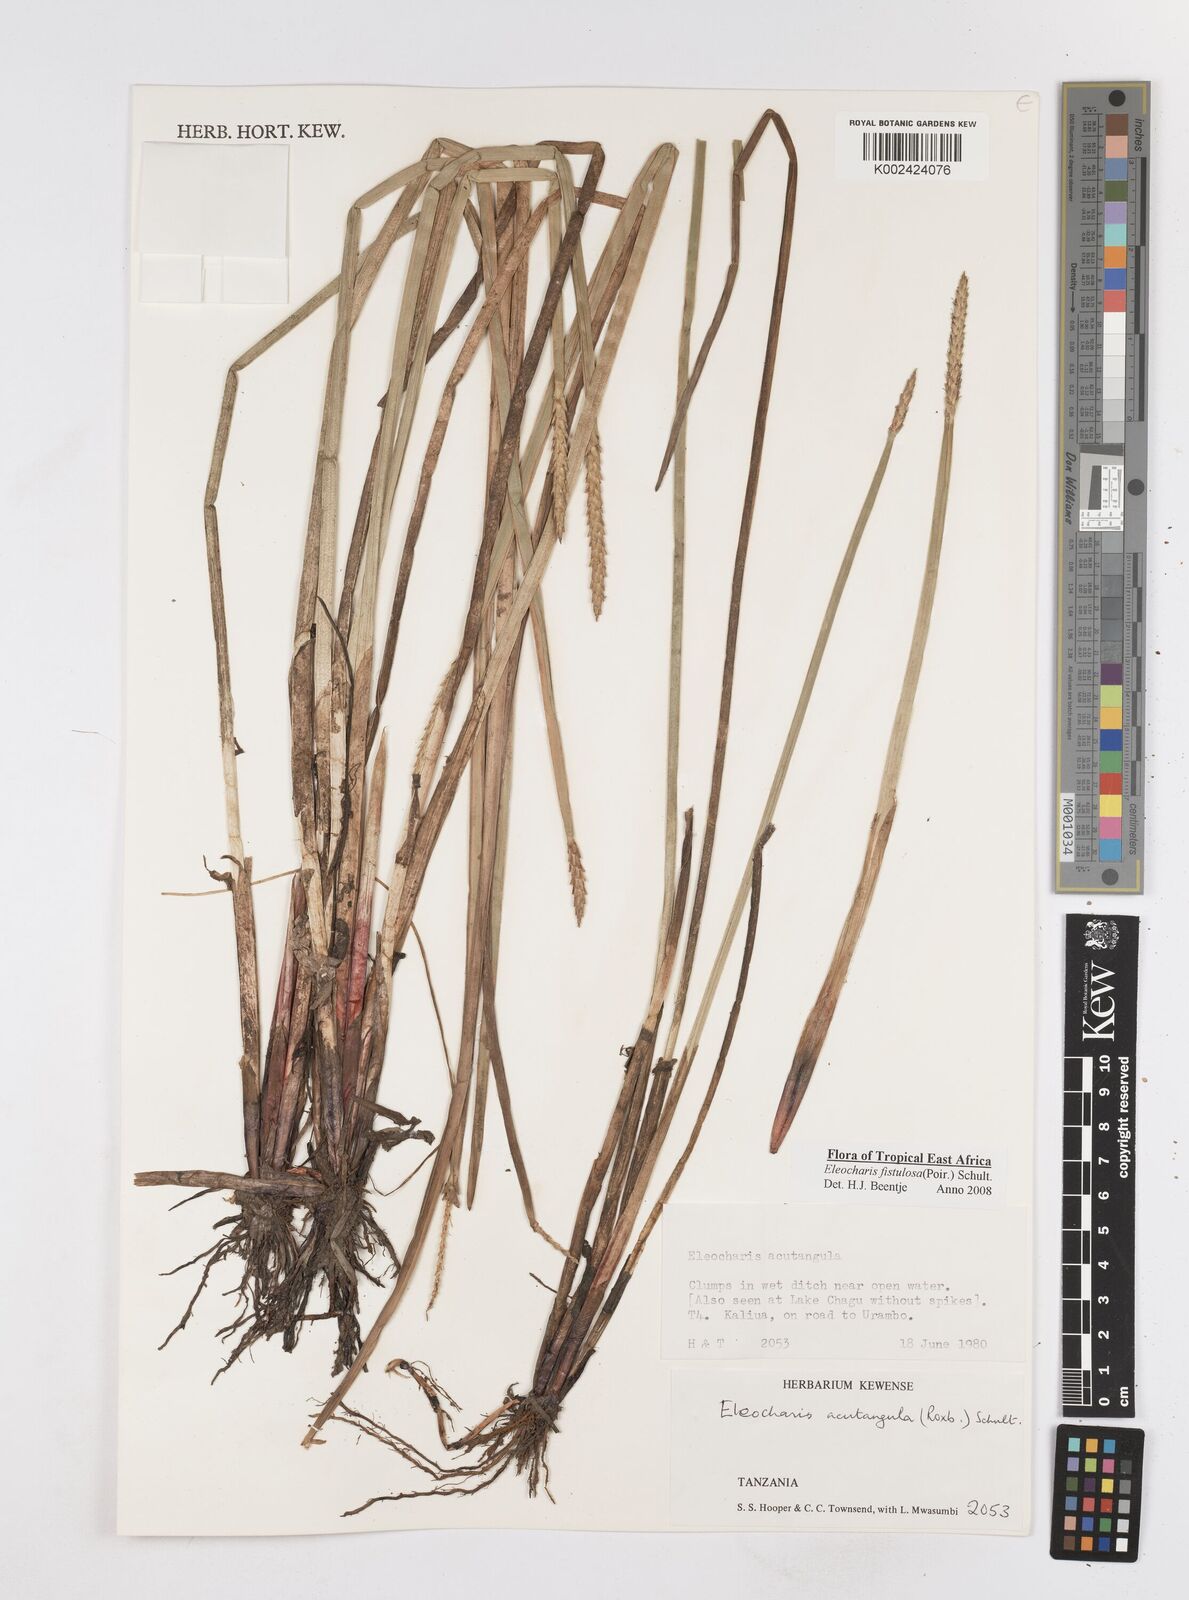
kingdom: Plantae
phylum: Tracheophyta
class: Liliopsida
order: Poales
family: Cyperaceae
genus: Eleocharis
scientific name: Eleocharis acutangula
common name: Acute spikerush
